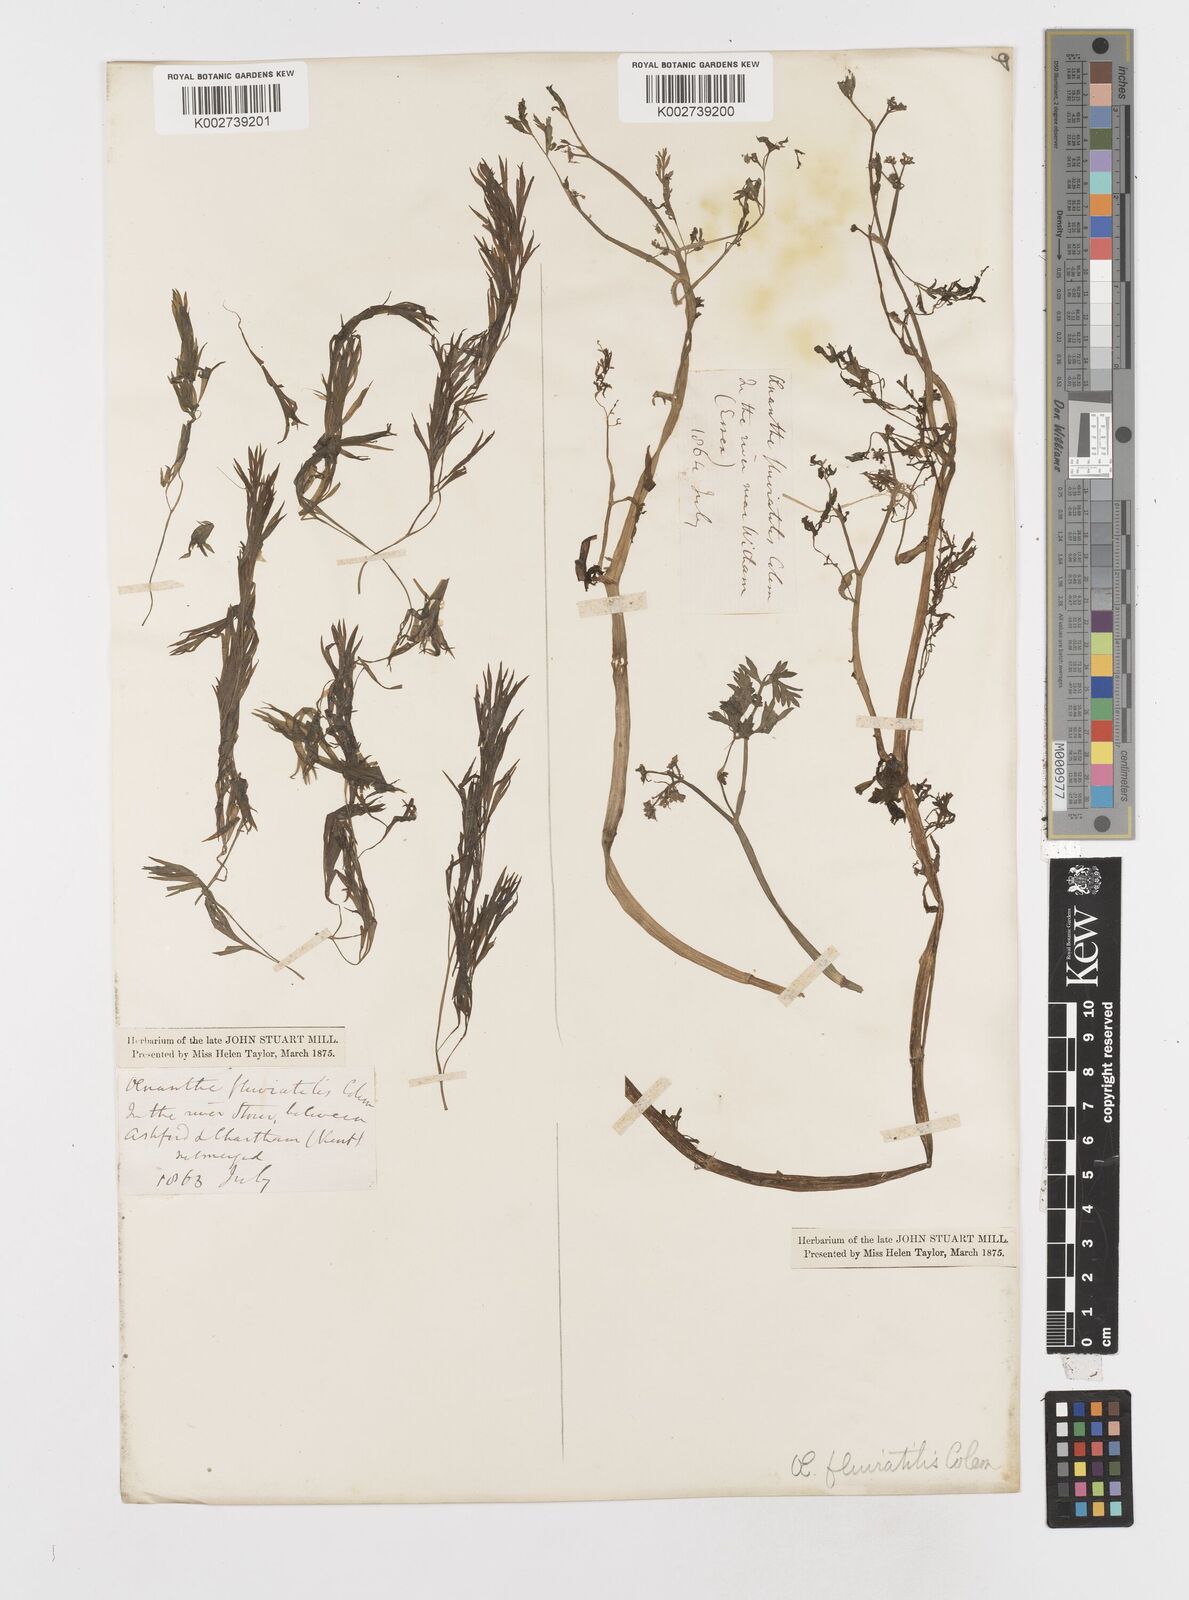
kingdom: Plantae
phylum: Tracheophyta
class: Magnoliopsida
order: Apiales
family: Apiaceae
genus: Oenanthe
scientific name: Oenanthe fluviatilis
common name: River water-dropwort
